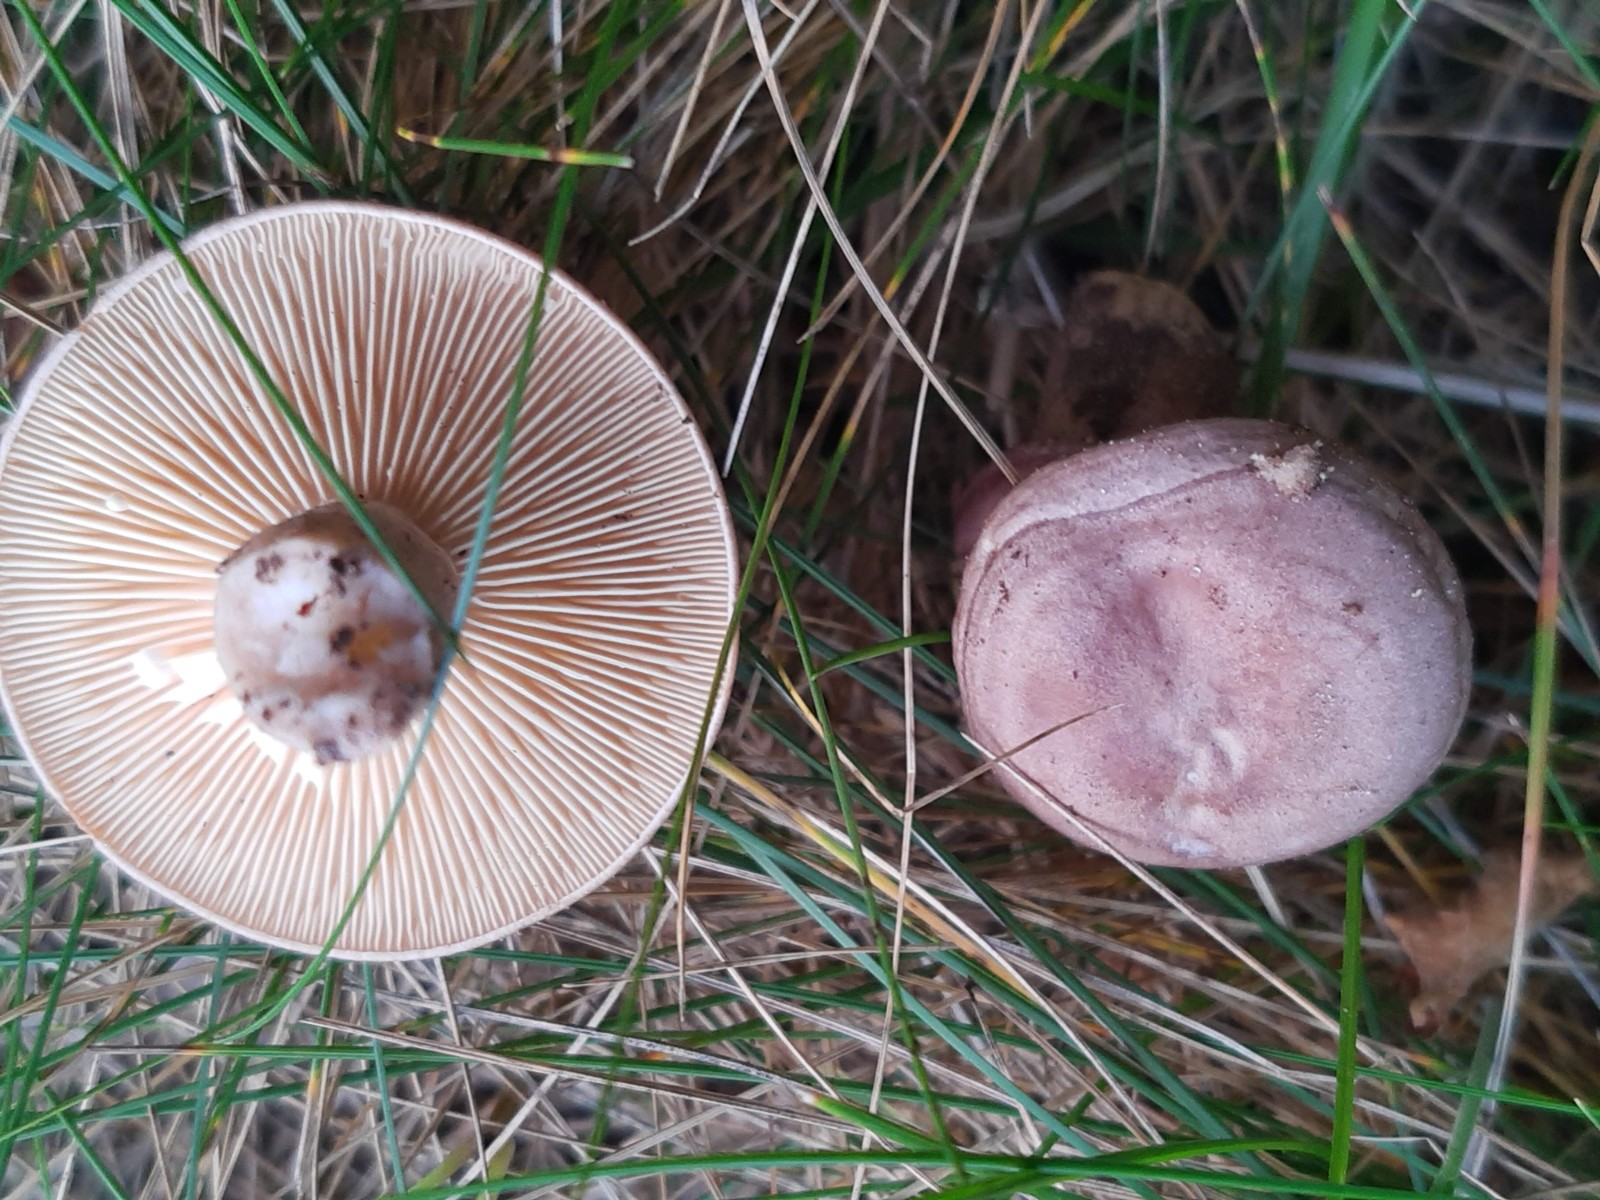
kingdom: Fungi
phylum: Basidiomycota
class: Agaricomycetes
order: Russulales
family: Russulaceae
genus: Lactarius
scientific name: Lactarius pyrogalus
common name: hassel-mælkehat
